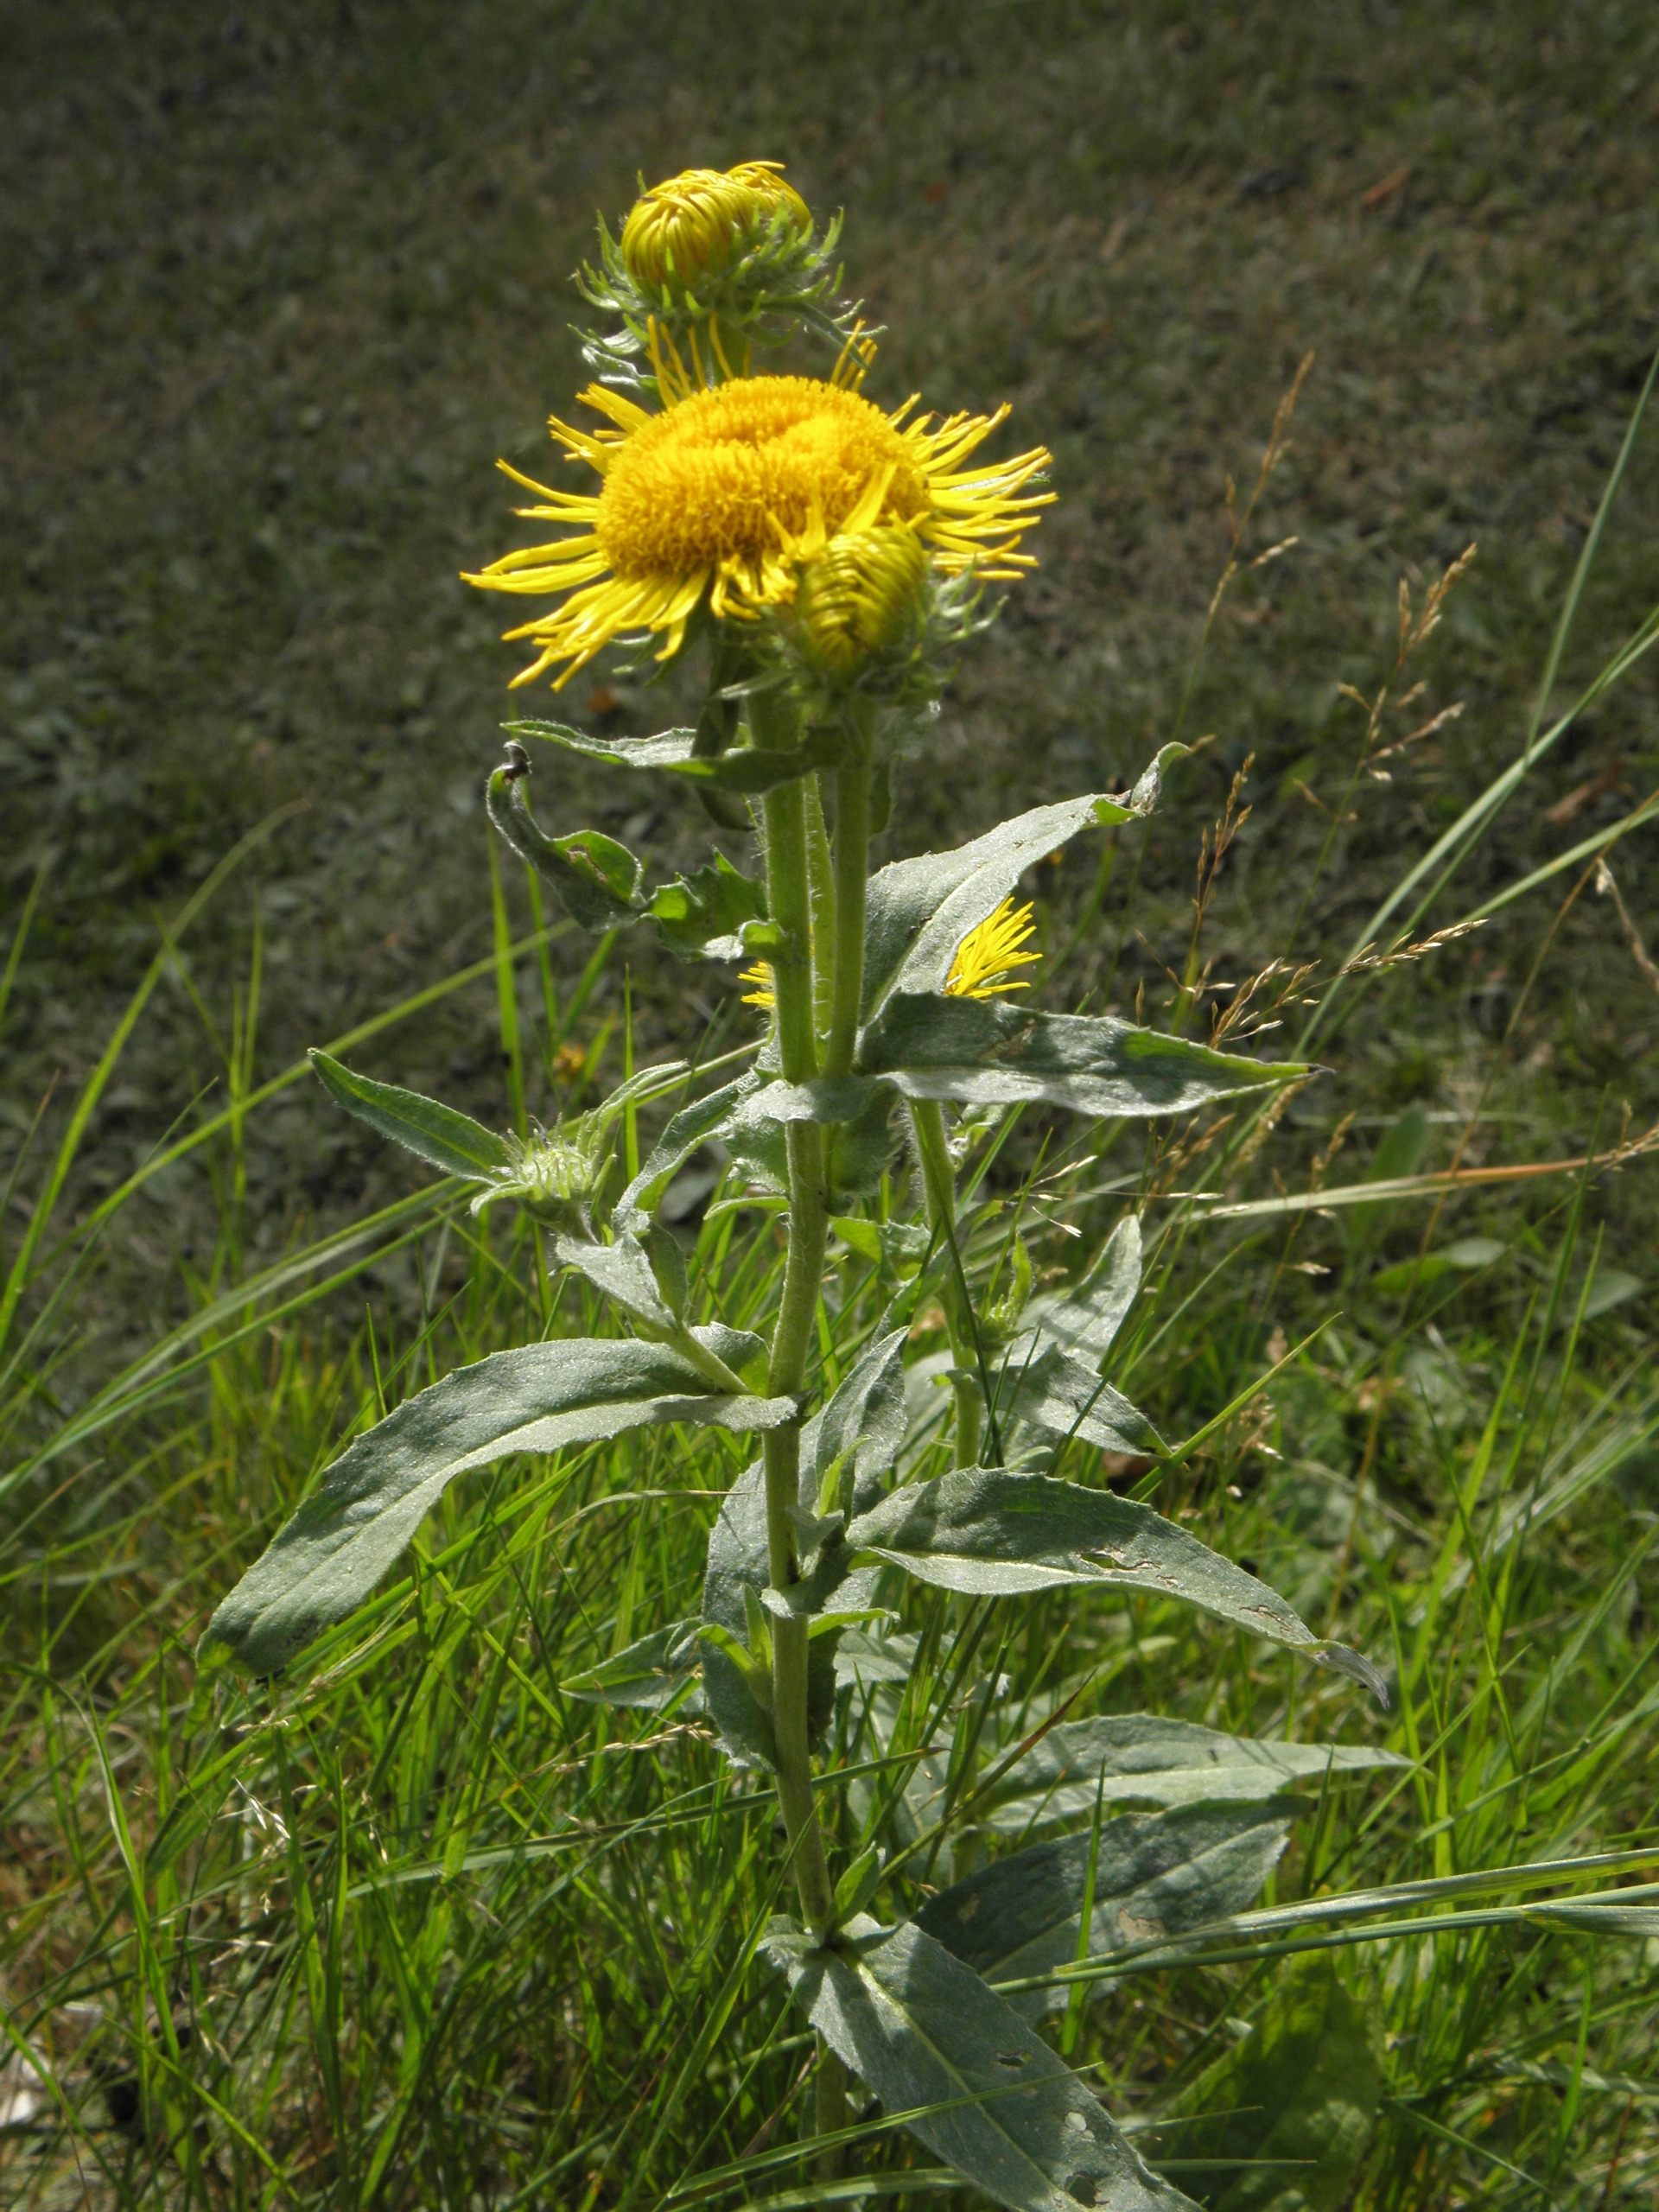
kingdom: Plantae
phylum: Tracheophyta
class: Magnoliopsida
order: Asterales
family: Asteraceae
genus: Inula
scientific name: Inula
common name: Alantslægten
